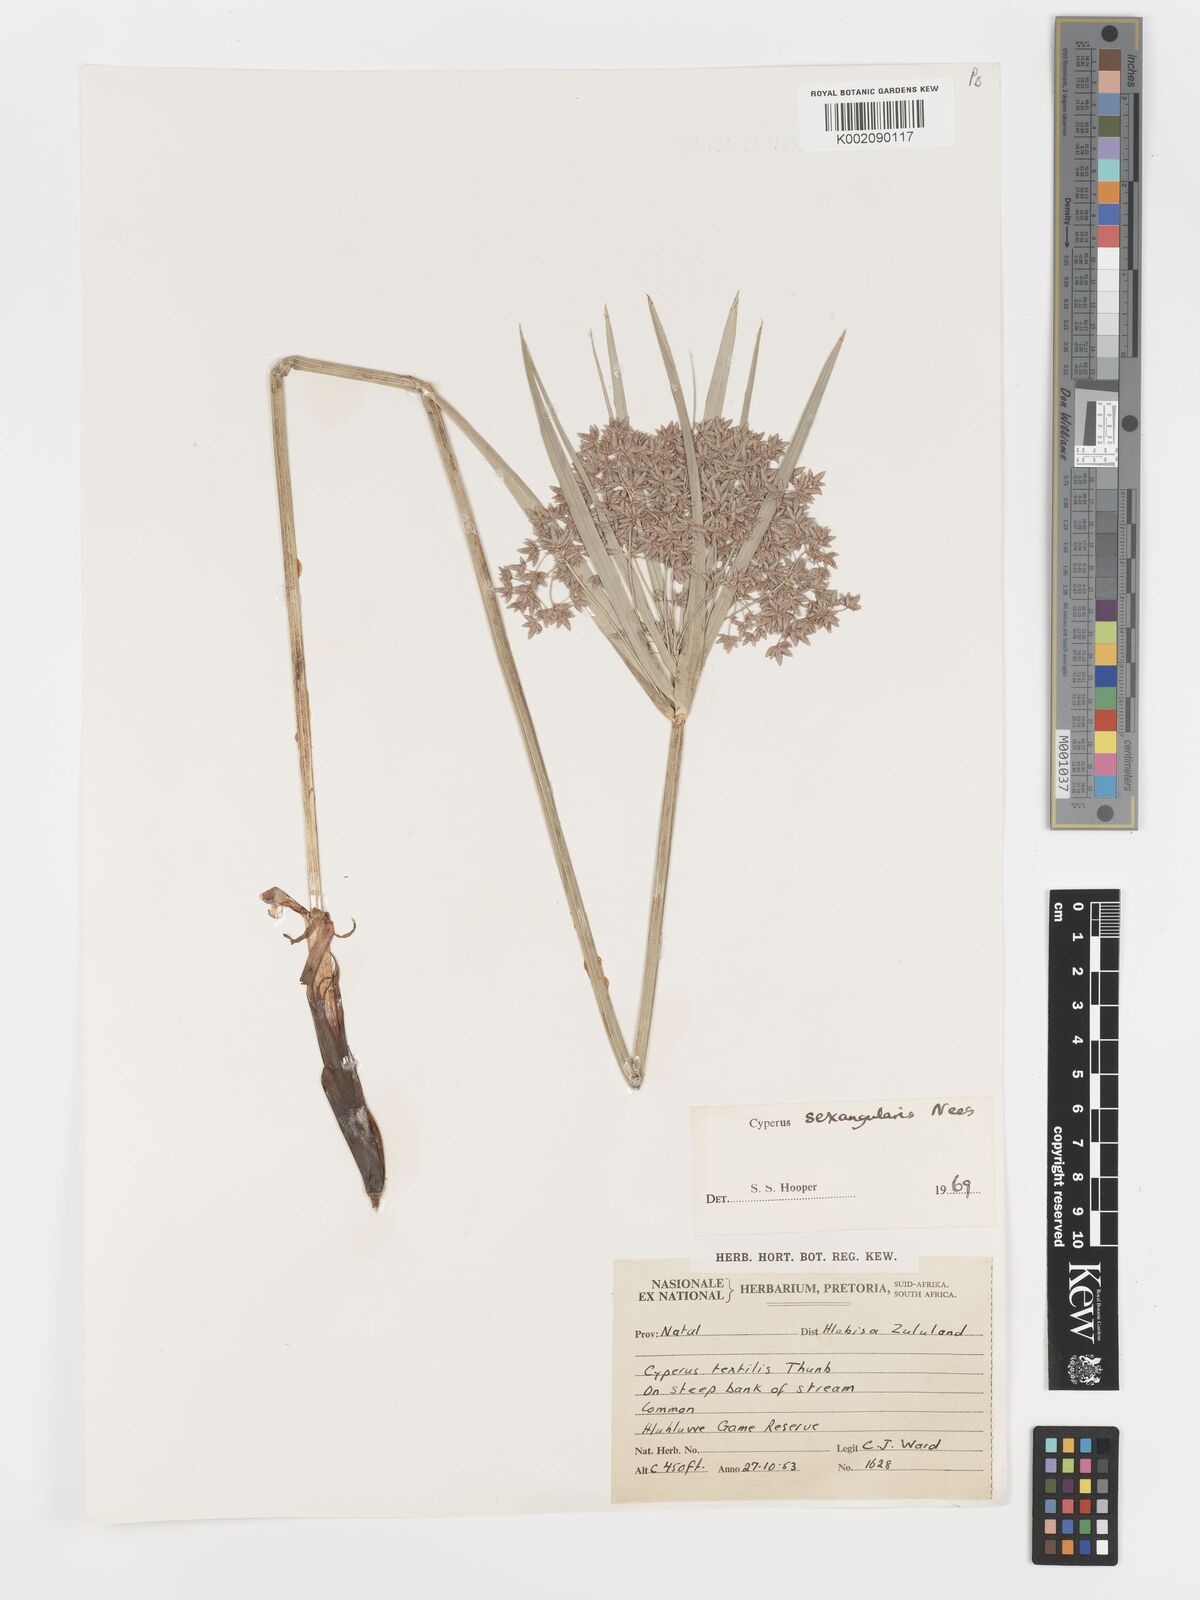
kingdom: Plantae
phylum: Tracheophyta
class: Liliopsida
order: Poales
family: Cyperaceae
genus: Cyperus
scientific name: Cyperus sexangularis
